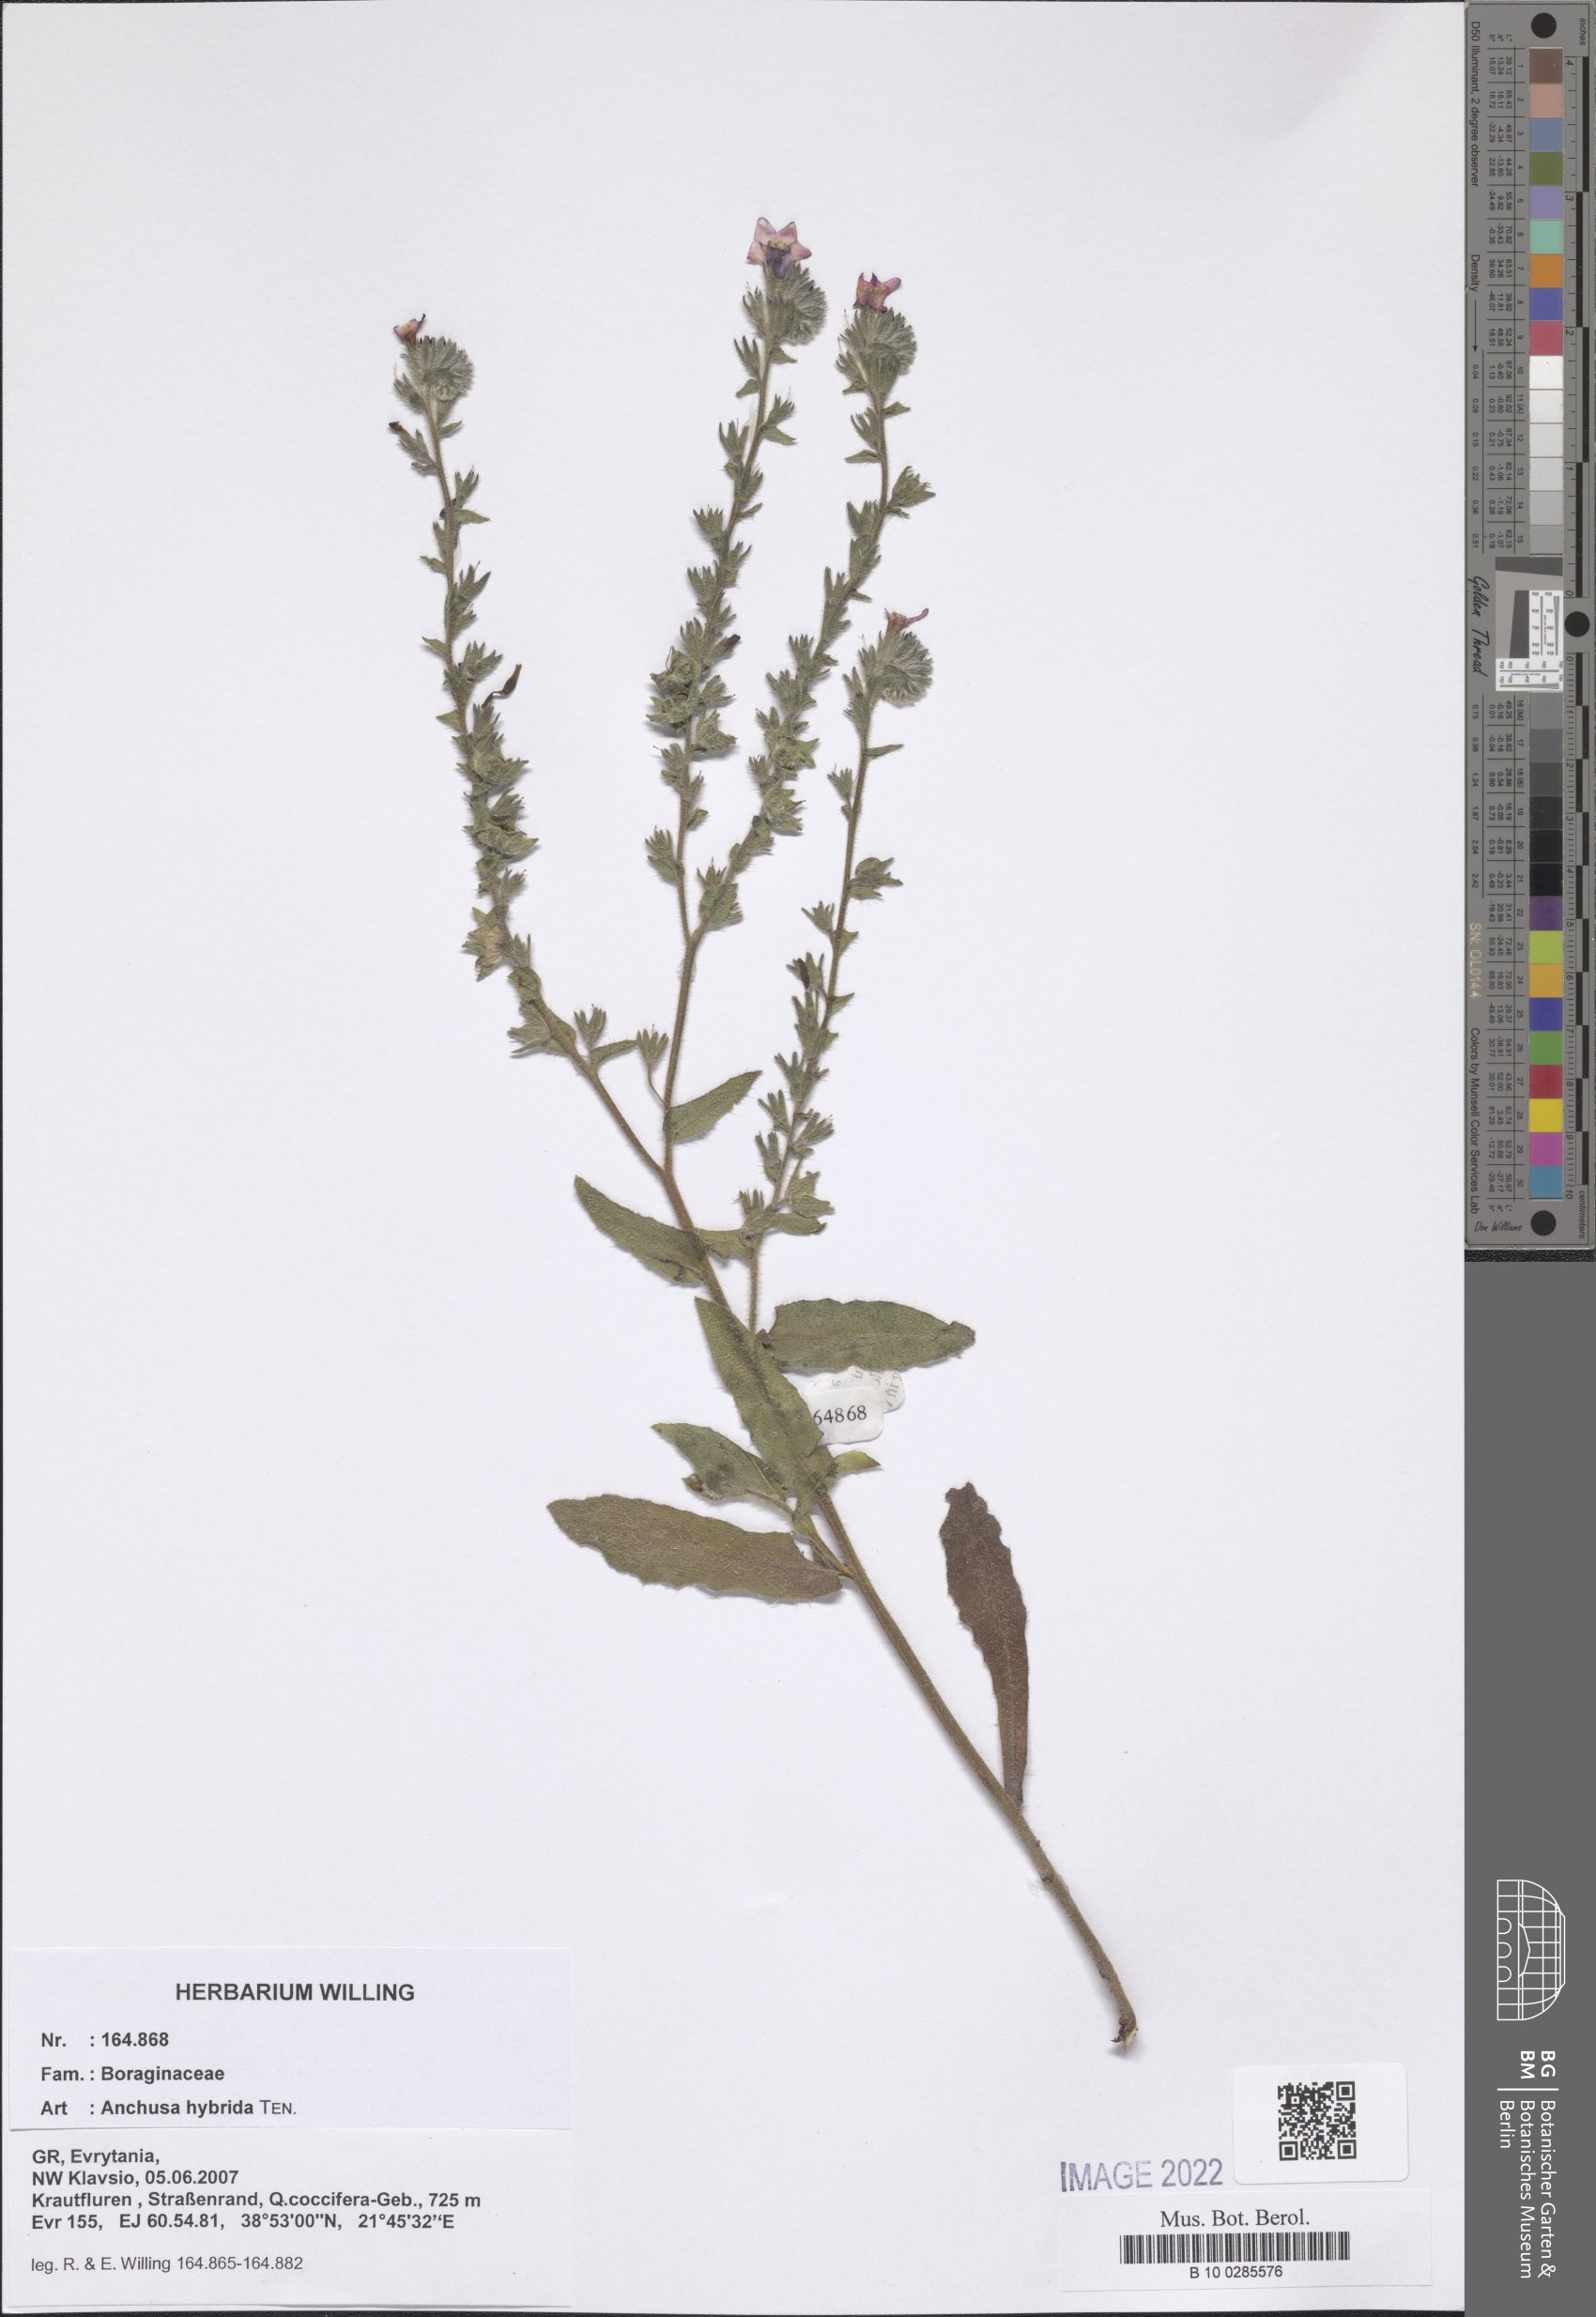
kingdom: Plantae
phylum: Tracheophyta
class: Magnoliopsida
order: Boraginales
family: Boraginaceae
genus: Anchusa
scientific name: Anchusa hybrida
